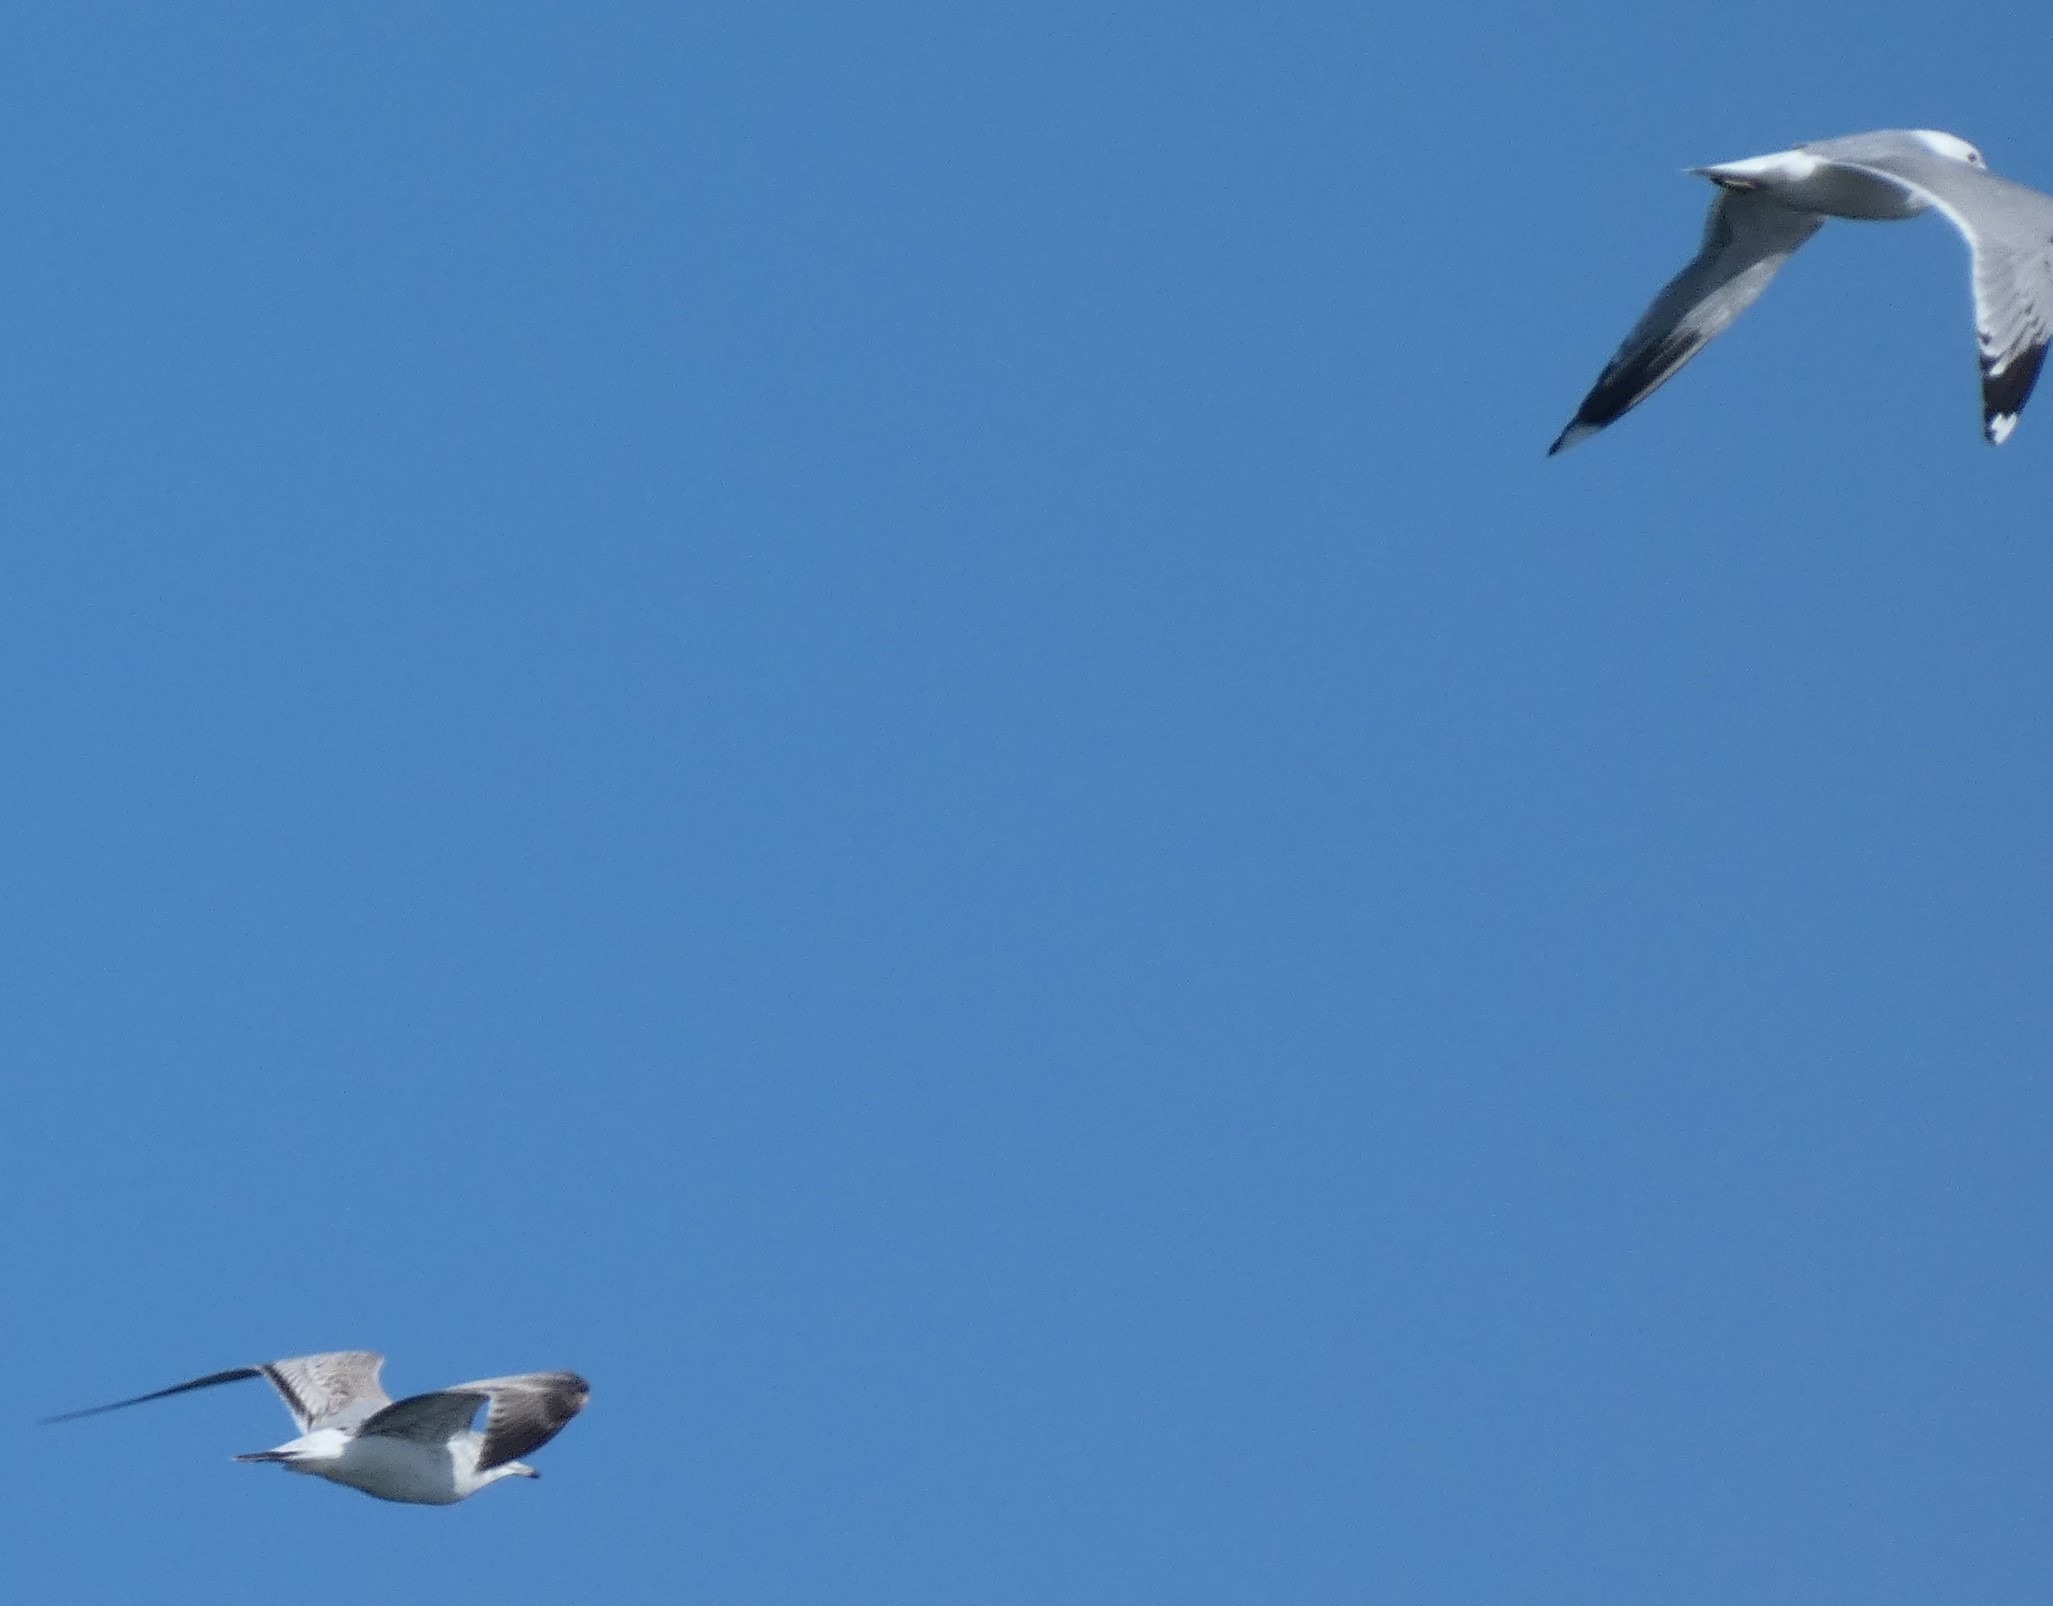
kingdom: Animalia
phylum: Chordata
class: Aves
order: Charadriiformes
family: Laridae
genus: Larus
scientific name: Larus canus
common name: Stormmåge
